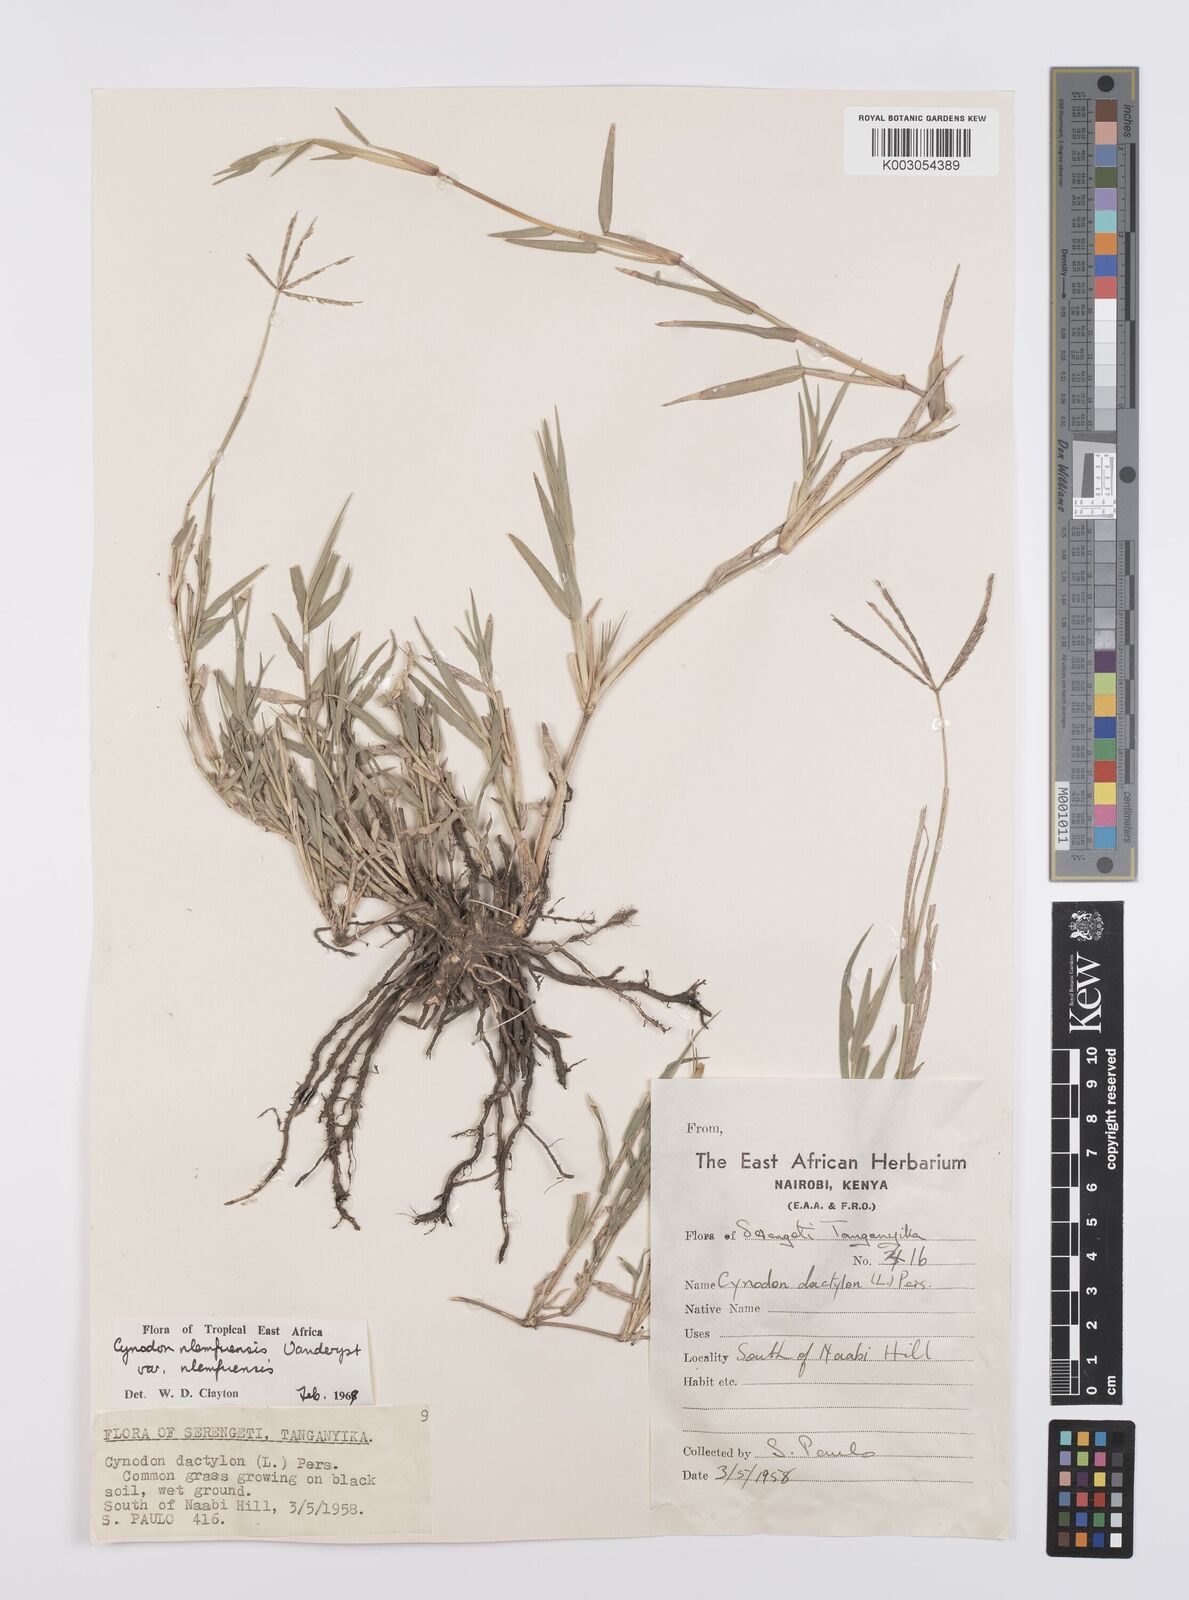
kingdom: Plantae
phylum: Tracheophyta
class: Liliopsida
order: Poales
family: Poaceae
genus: Cynodon
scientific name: Cynodon nlemfuensis
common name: African bermudagrass
